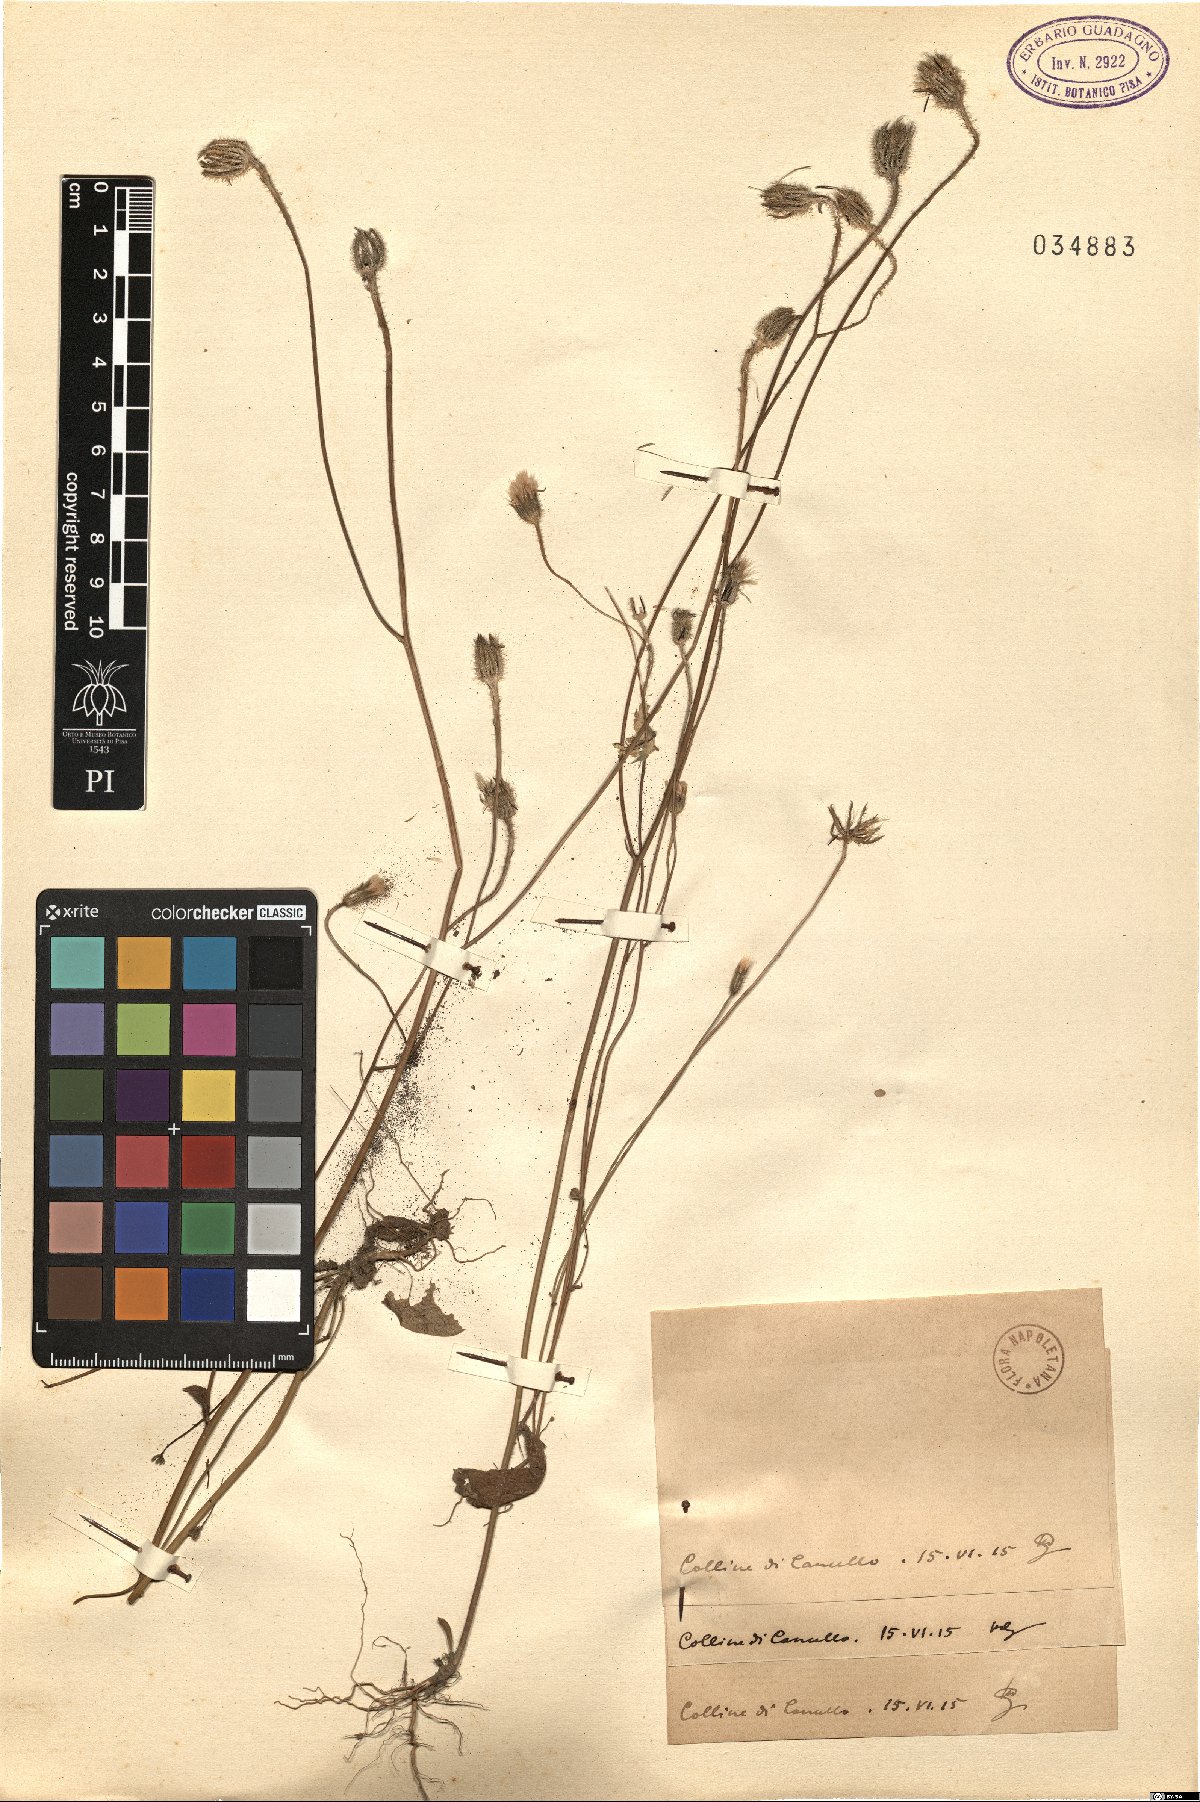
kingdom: Plantae
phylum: Tracheophyta
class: Magnoliopsida
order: Asterales
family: Asteraceae
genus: Hypochaeris
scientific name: Hypochaeris
